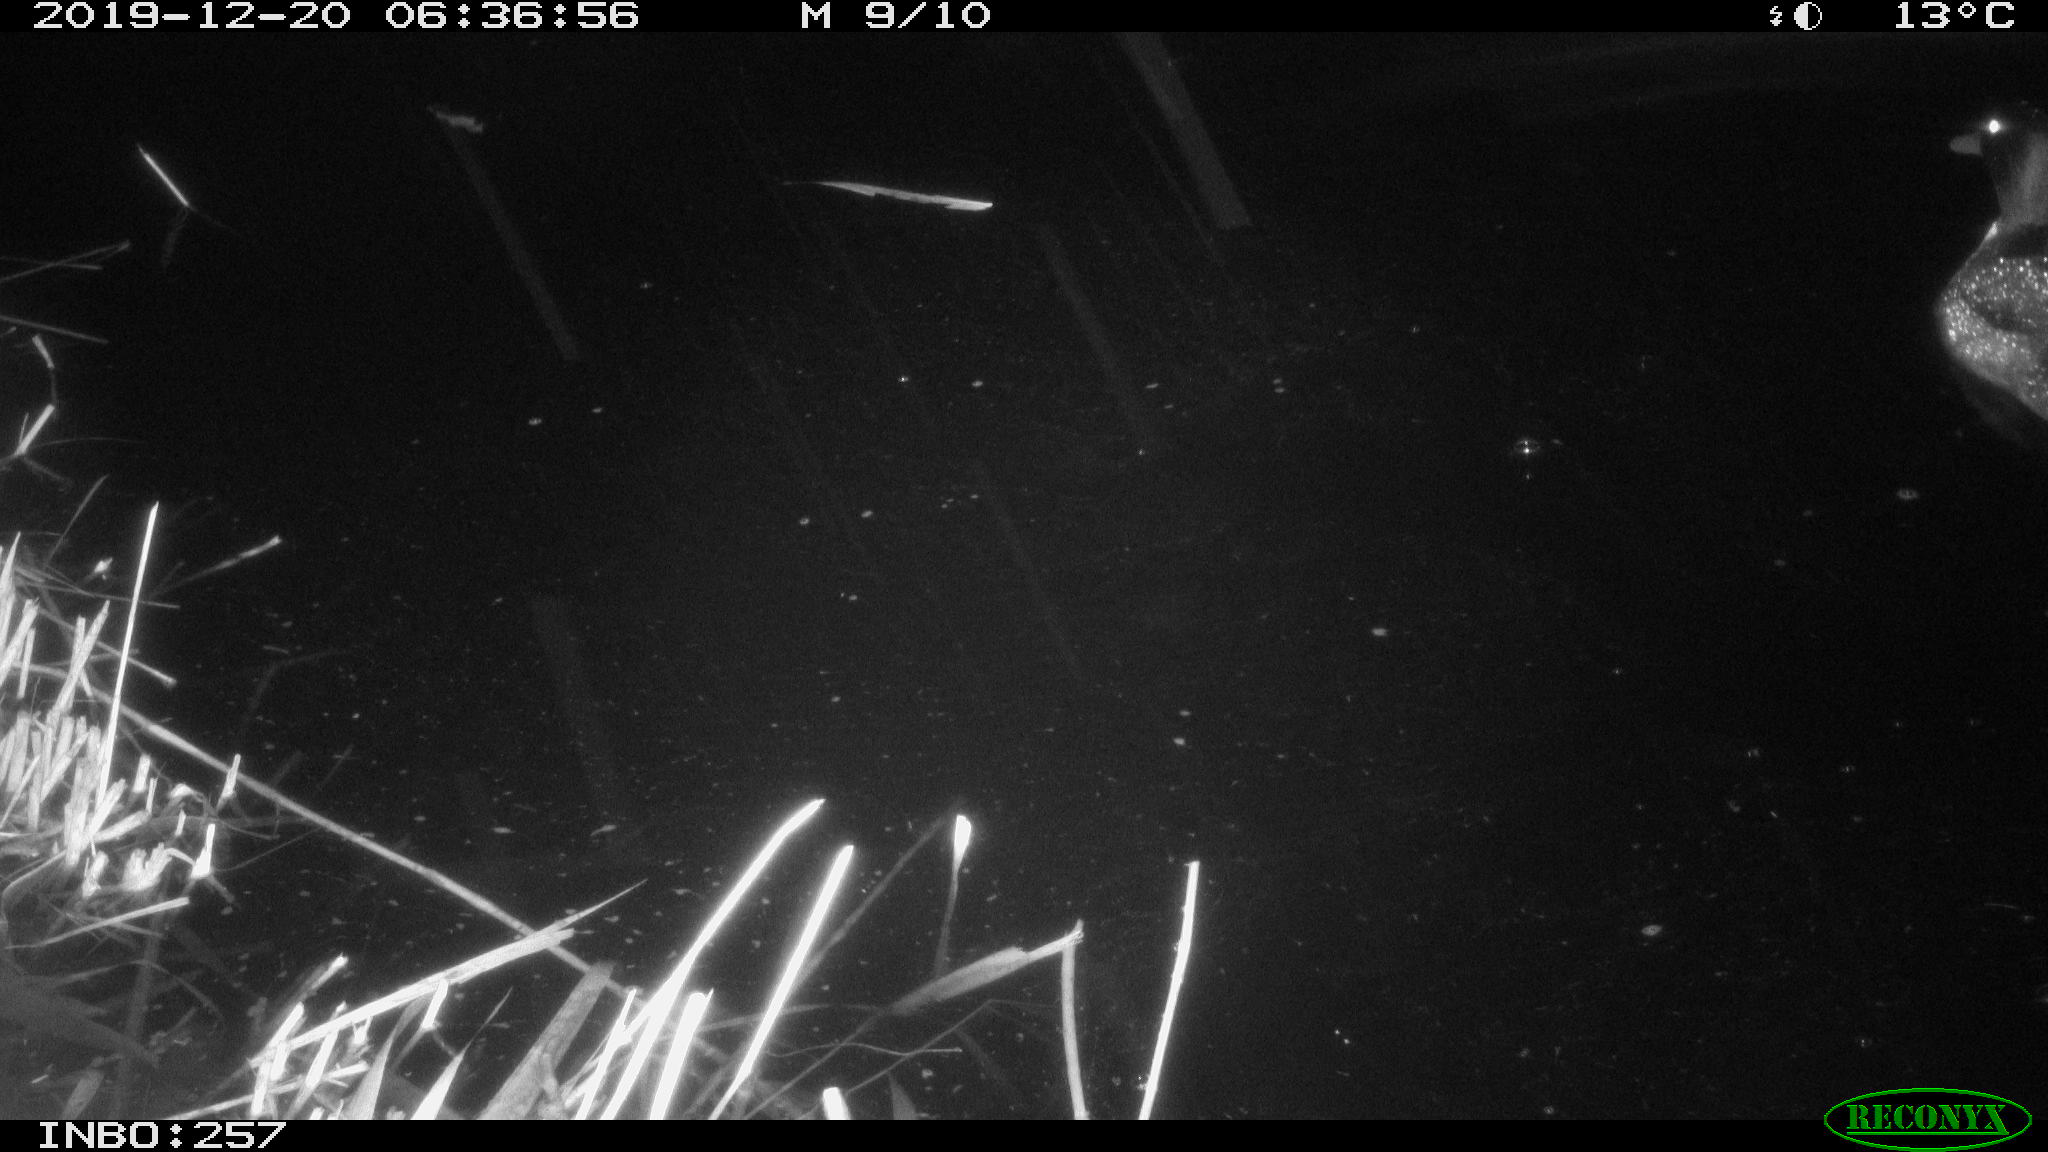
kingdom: Animalia
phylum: Chordata
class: Aves
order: Anseriformes
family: Anatidae
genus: Anas
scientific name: Anas platyrhynchos
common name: Mallard
